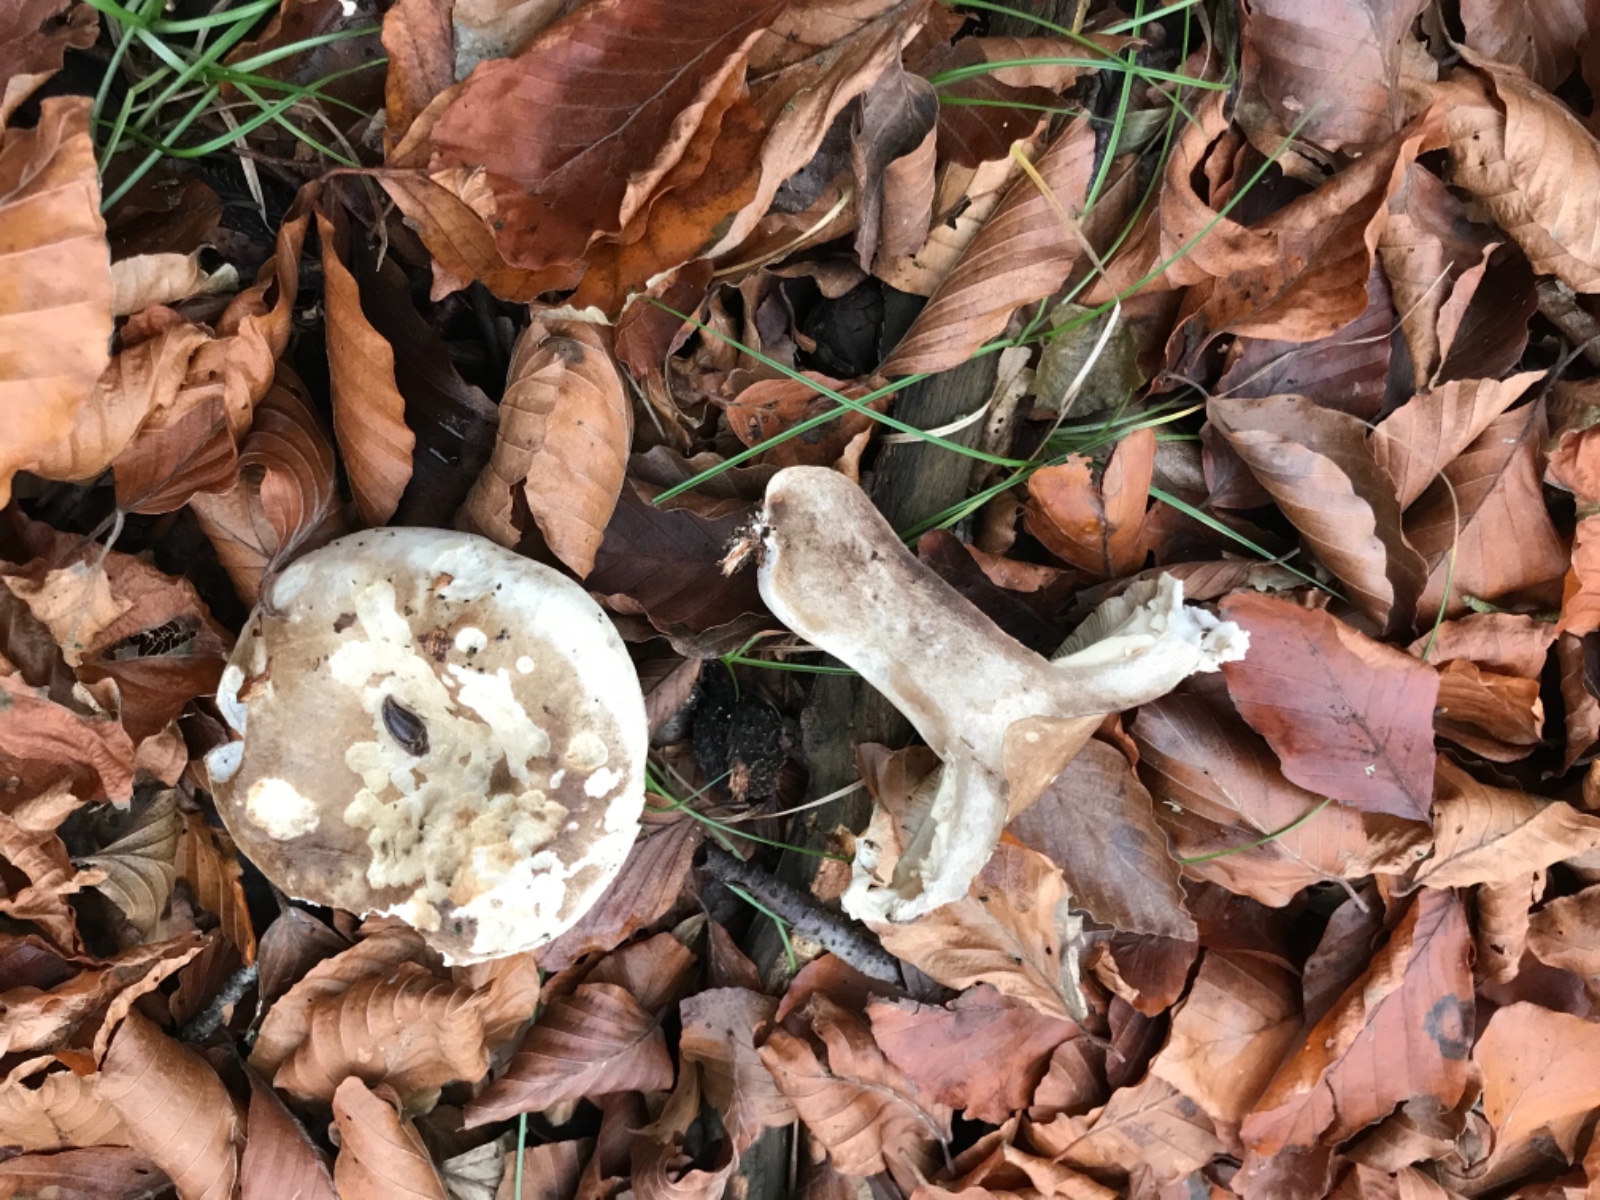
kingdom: Fungi
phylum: Basidiomycota
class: Agaricomycetes
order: Russulales
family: Russulaceae
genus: Russula
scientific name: Russula acrifolia
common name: skarpbladet skørhat
